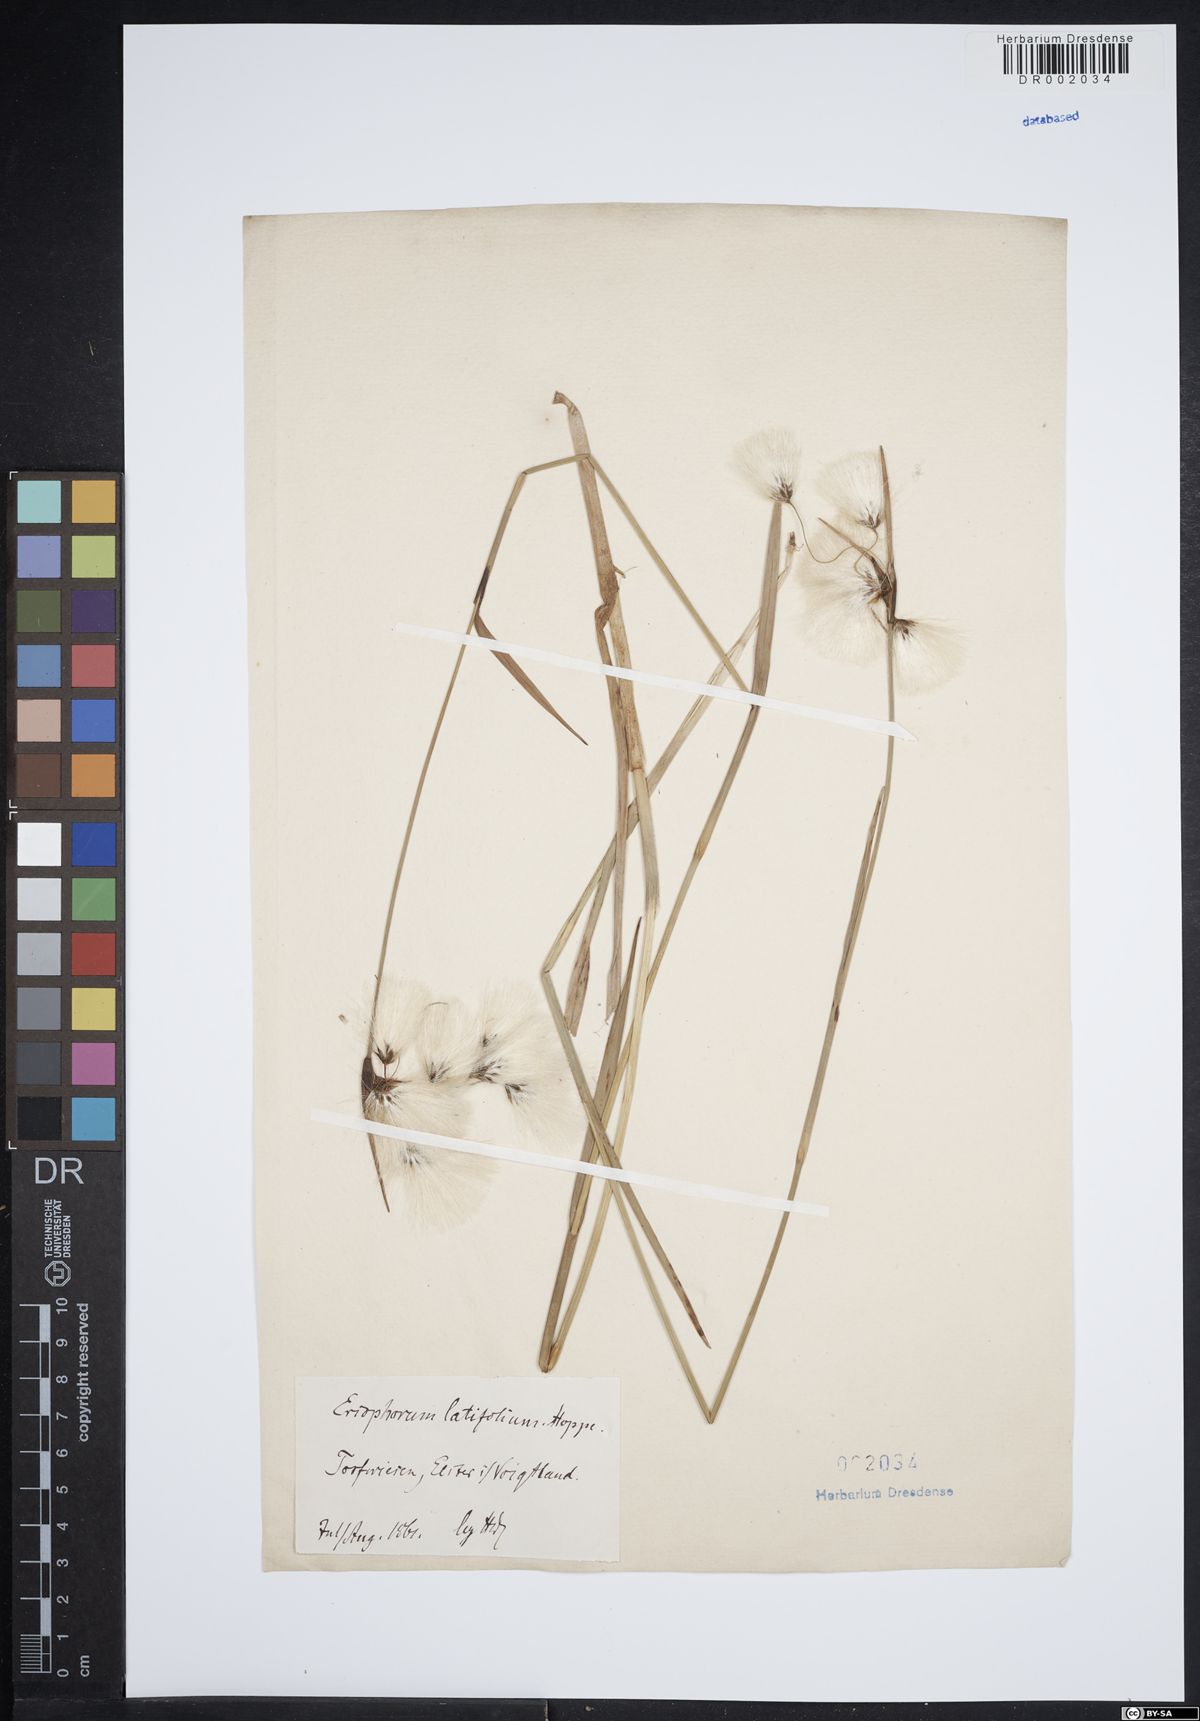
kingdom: Plantae
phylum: Tracheophyta
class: Liliopsida
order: Poales
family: Cyperaceae
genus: Eriophorum
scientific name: Eriophorum latifolium
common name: Broad-leaved cottongrass
